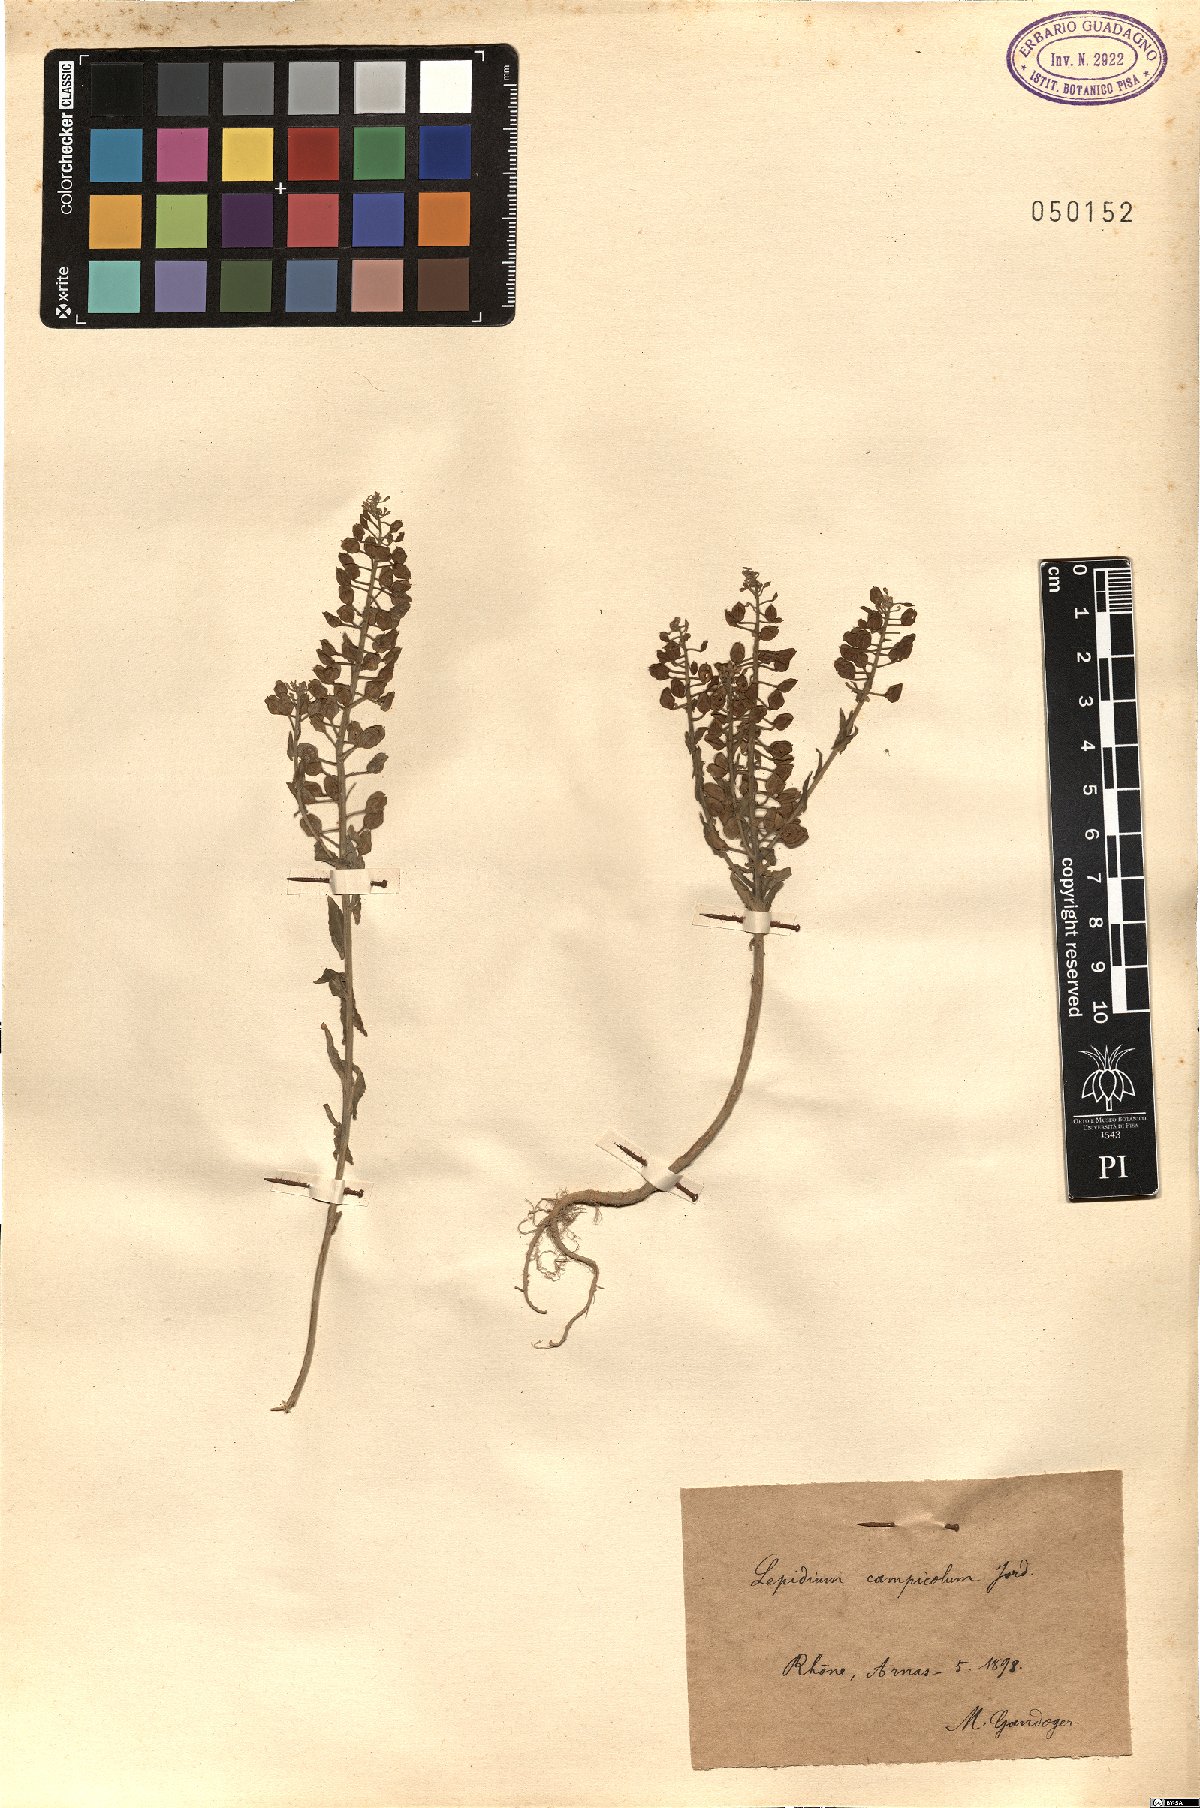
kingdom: Plantae
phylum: Tracheophyta
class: Magnoliopsida
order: Brassicales
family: Brassicaceae
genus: Lepidium
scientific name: Lepidium campestre
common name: Field pepperwort
